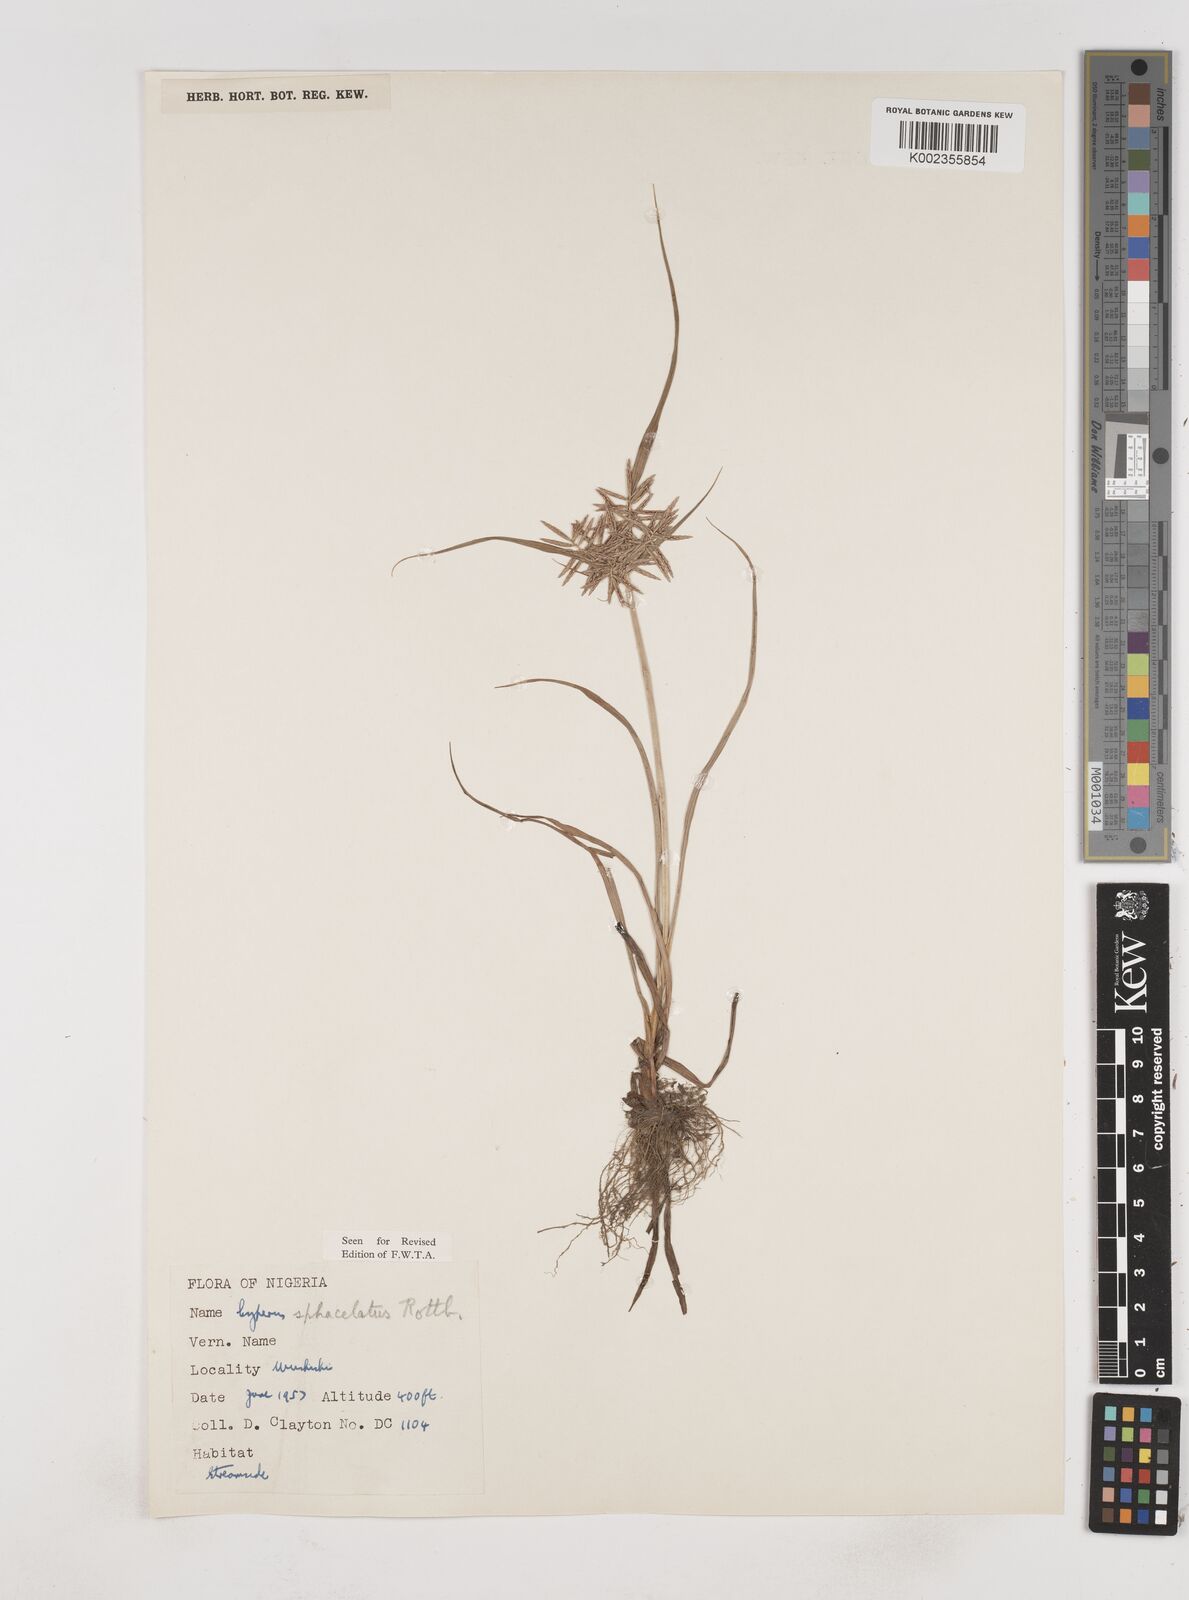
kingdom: Plantae
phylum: Tracheophyta
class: Liliopsida
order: Poales
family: Cyperaceae
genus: Cyperus
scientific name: Cyperus sphacelatus
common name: Roadside flatsedge
